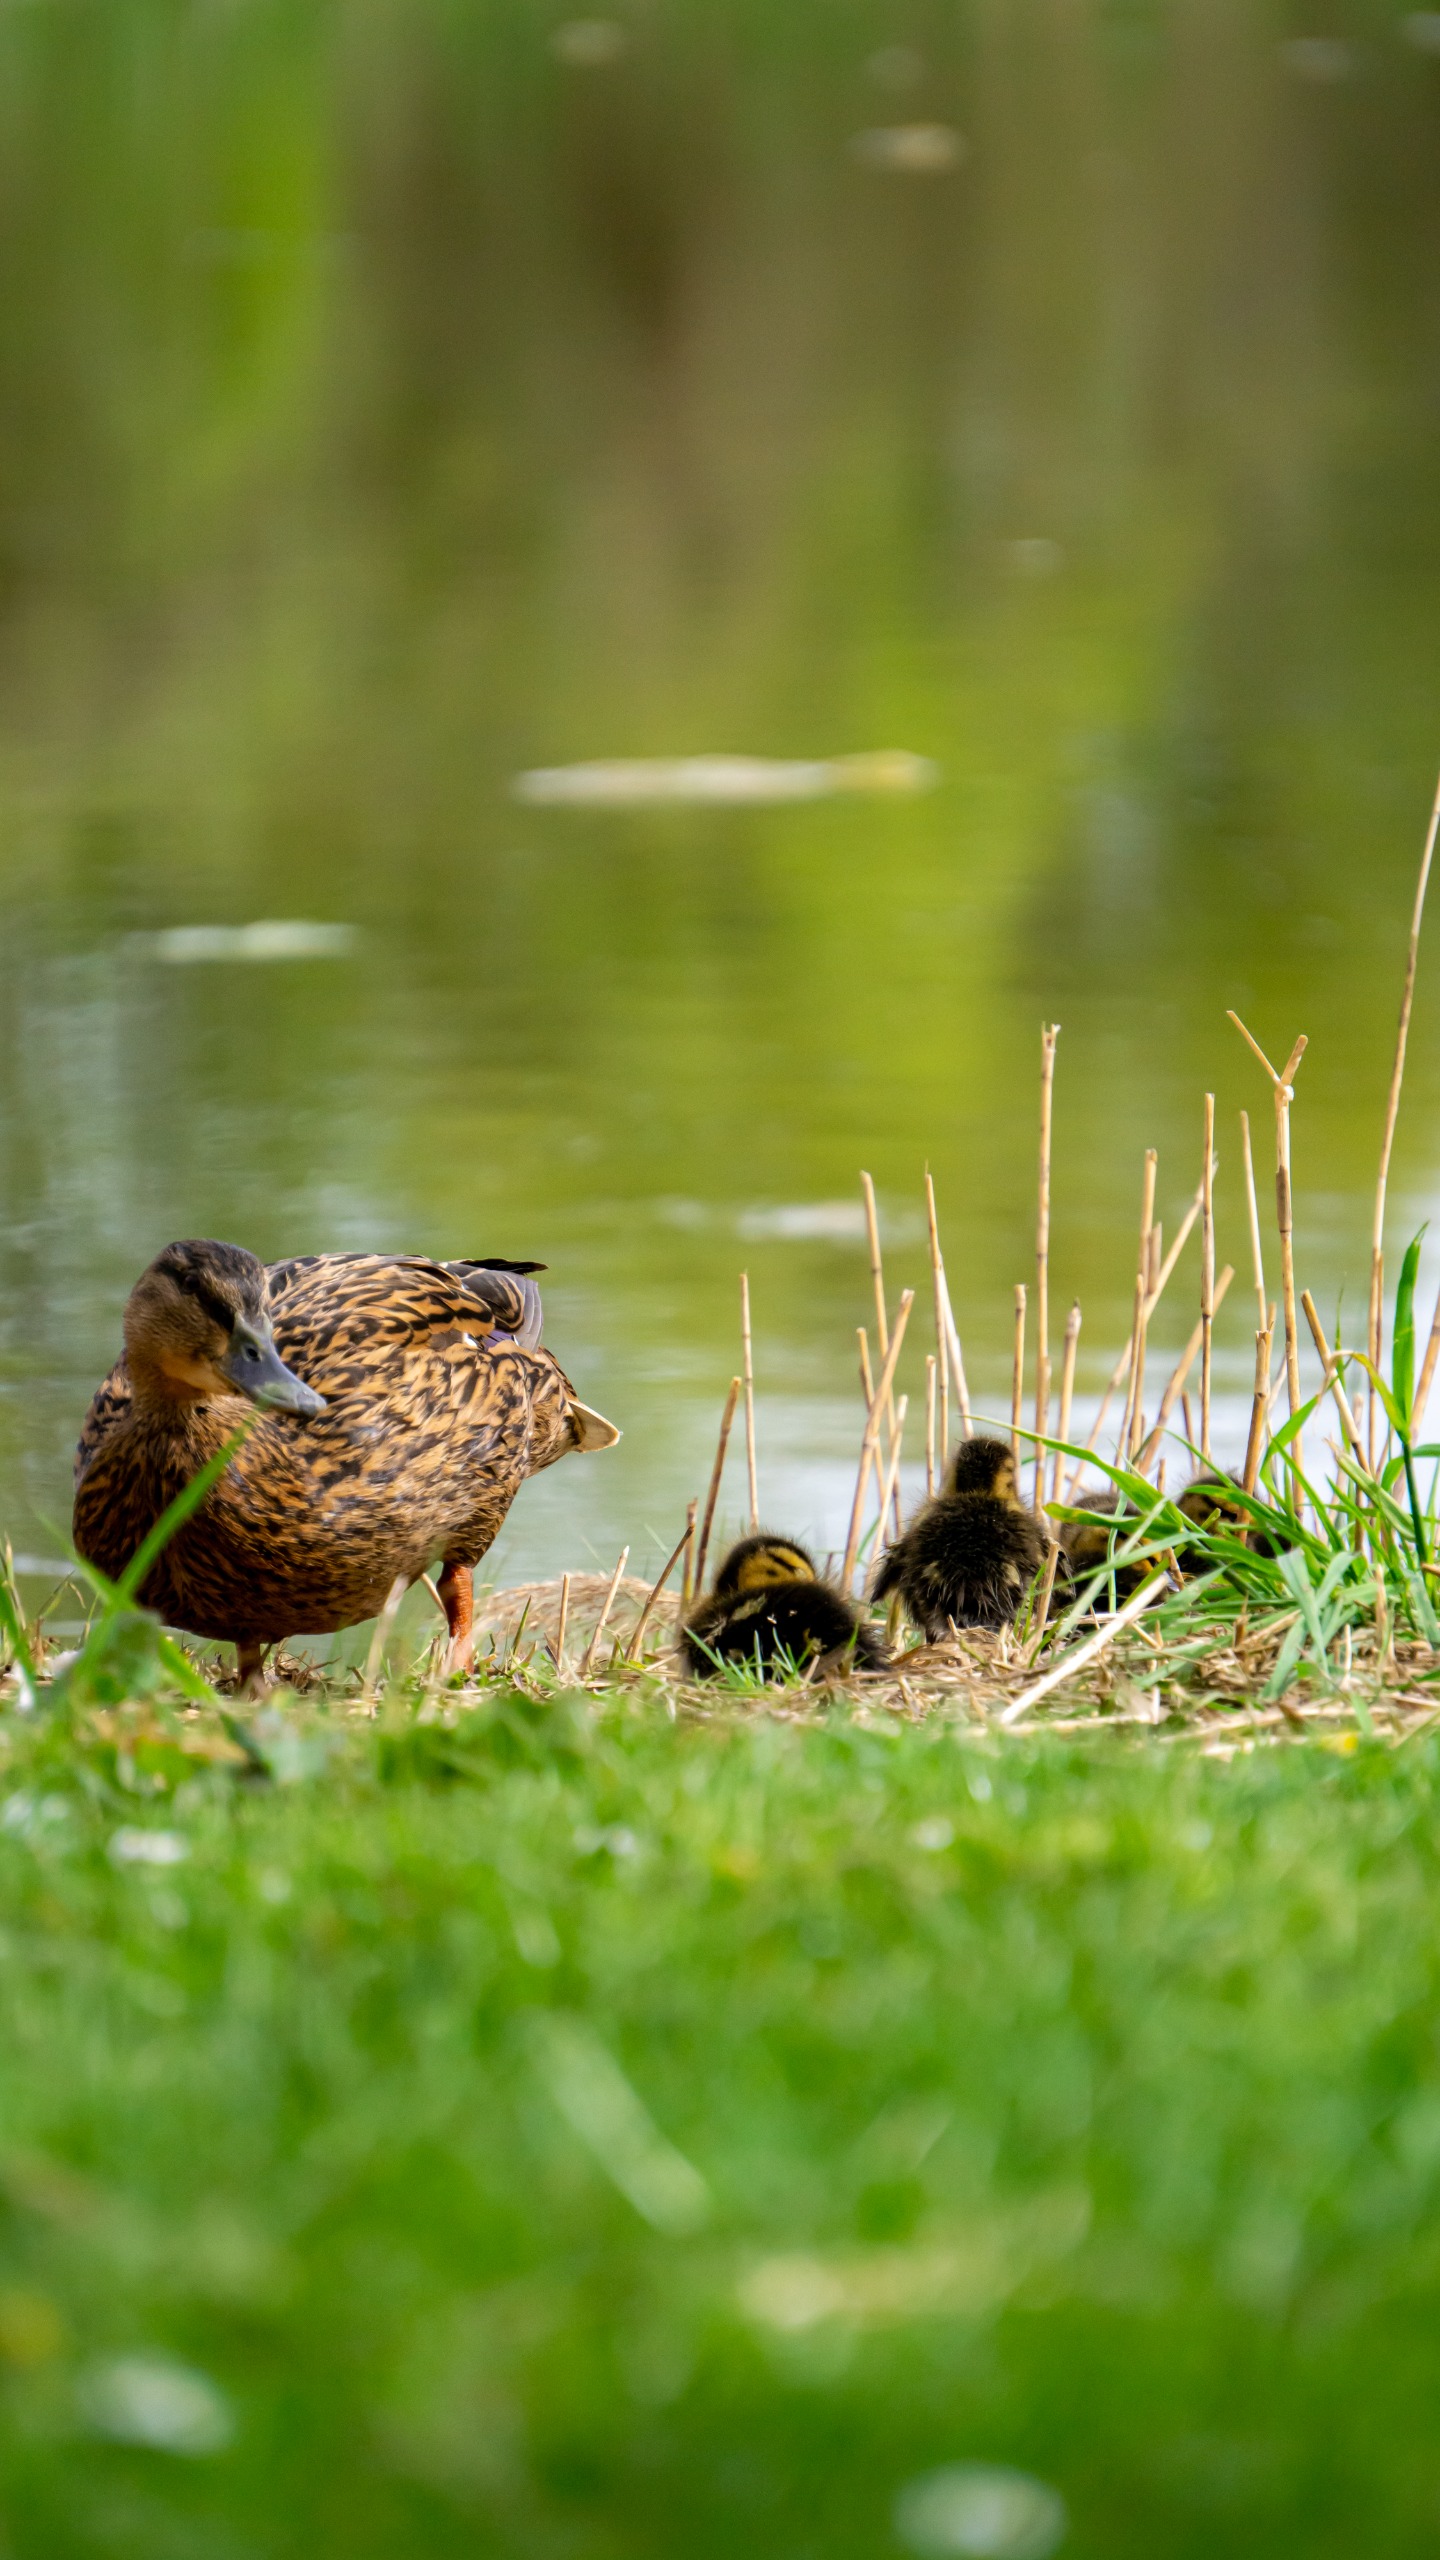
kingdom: Animalia
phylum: Chordata
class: Aves
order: Anseriformes
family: Anatidae
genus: Anas
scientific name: Anas platyrhynchos
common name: Gråand
